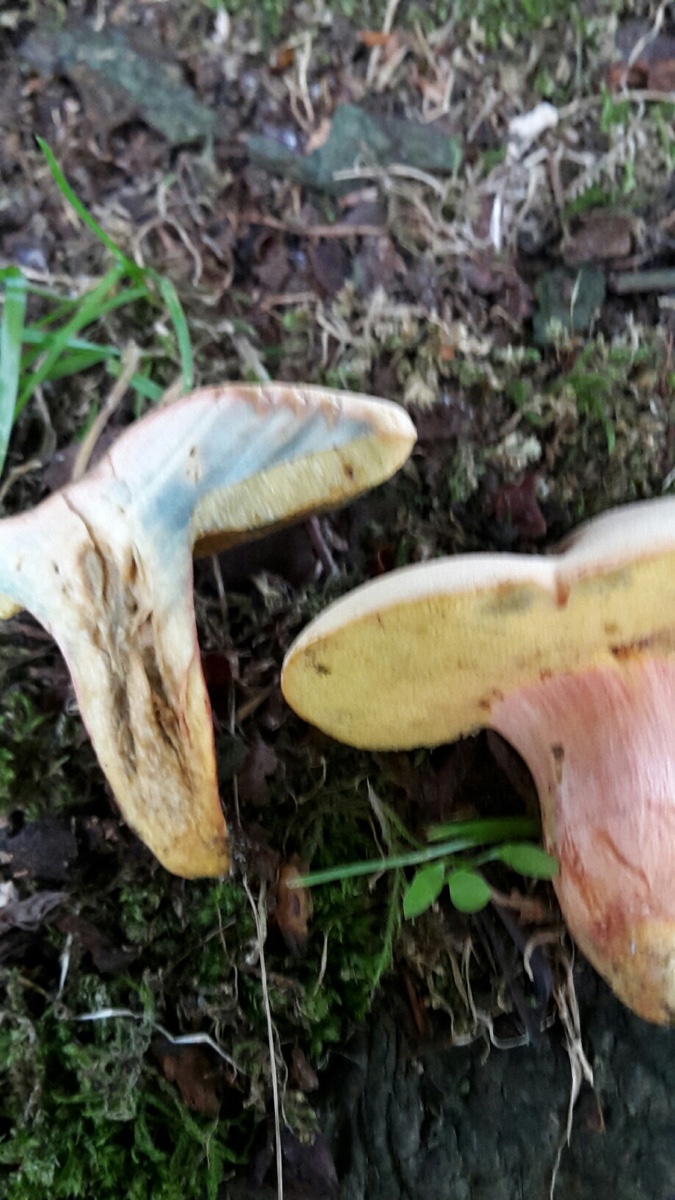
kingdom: Fungi
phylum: Basidiomycota
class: Agaricomycetes
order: Boletales
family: Boletaceae
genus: Hortiboletus
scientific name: Hortiboletus bubalinus
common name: aurora-rørhat
